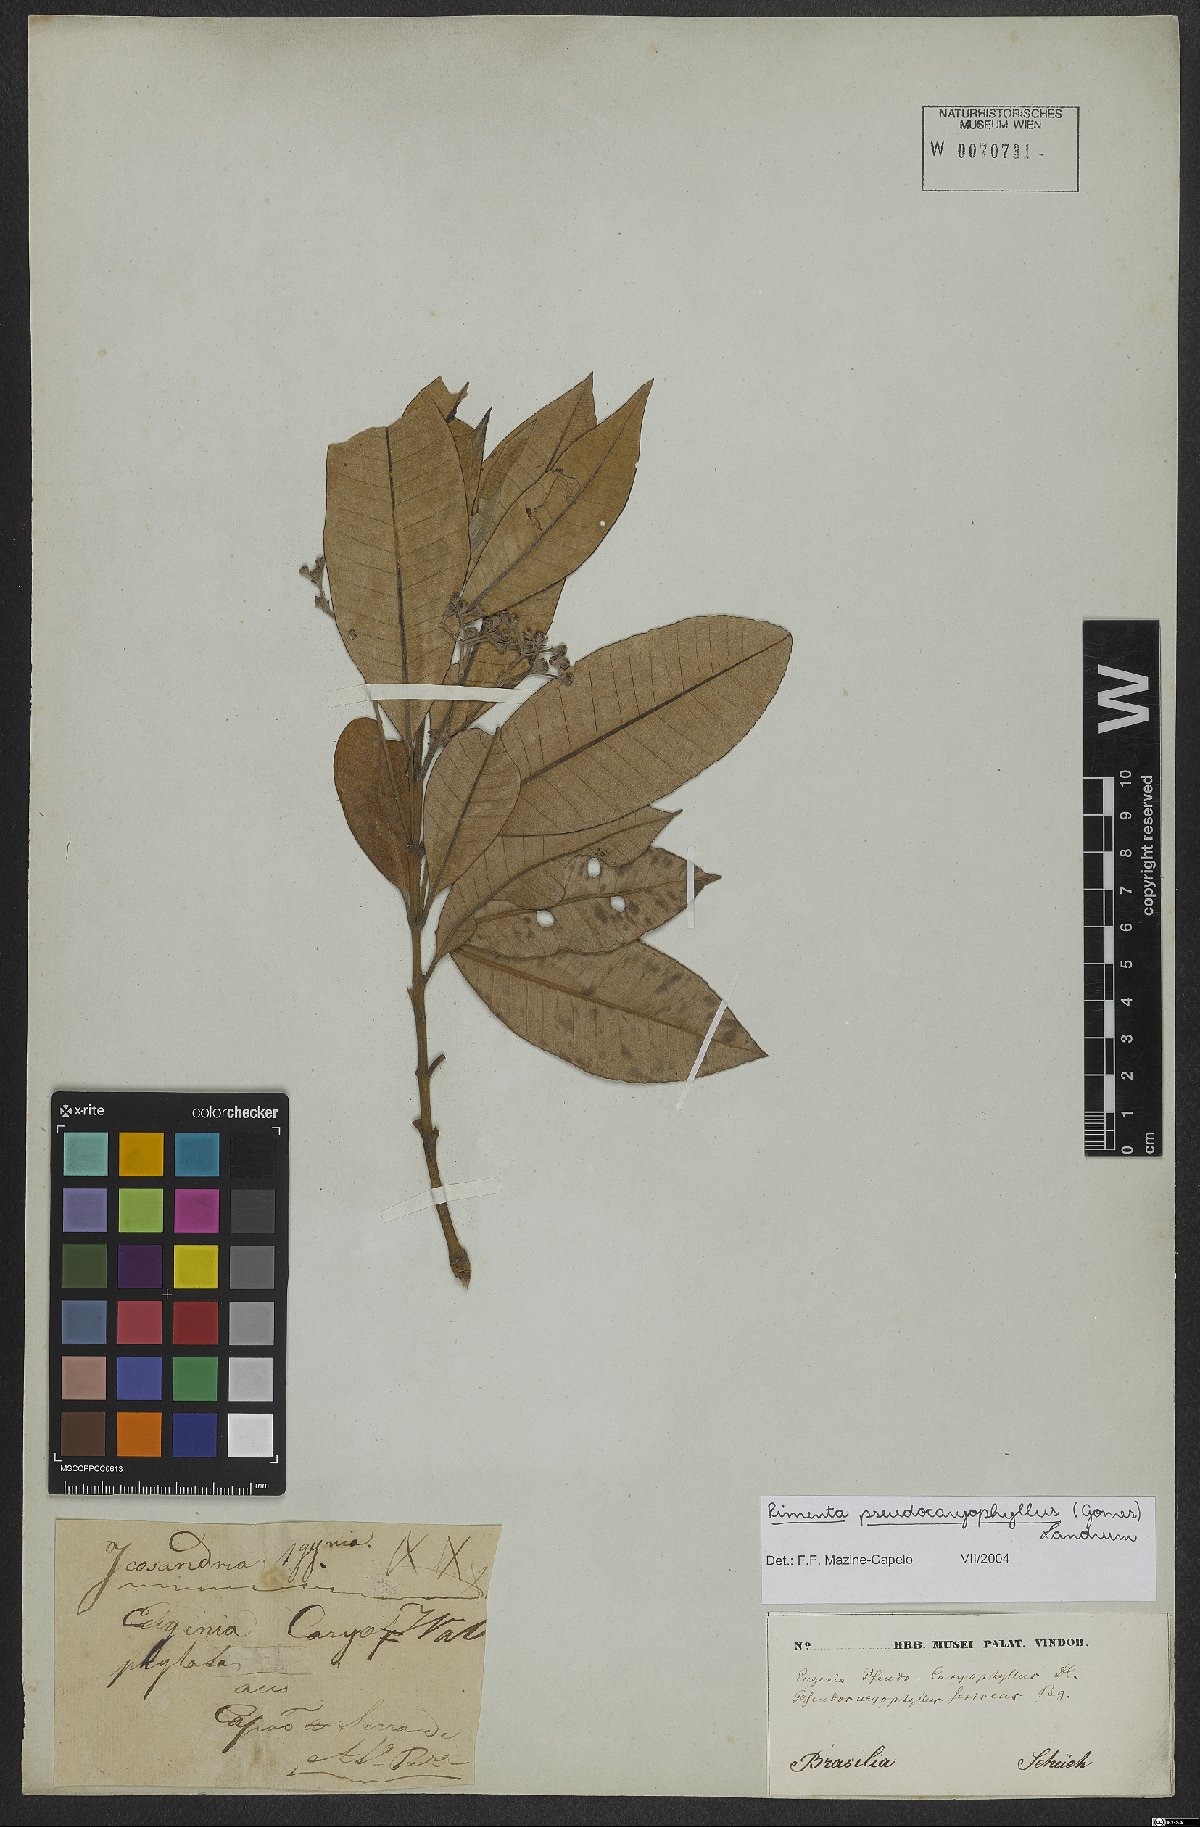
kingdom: Plantae
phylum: Tracheophyta
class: Magnoliopsida
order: Myrtales
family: Myrtaceae
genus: Pimenta
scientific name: Pimenta pseudocaryophyllus
